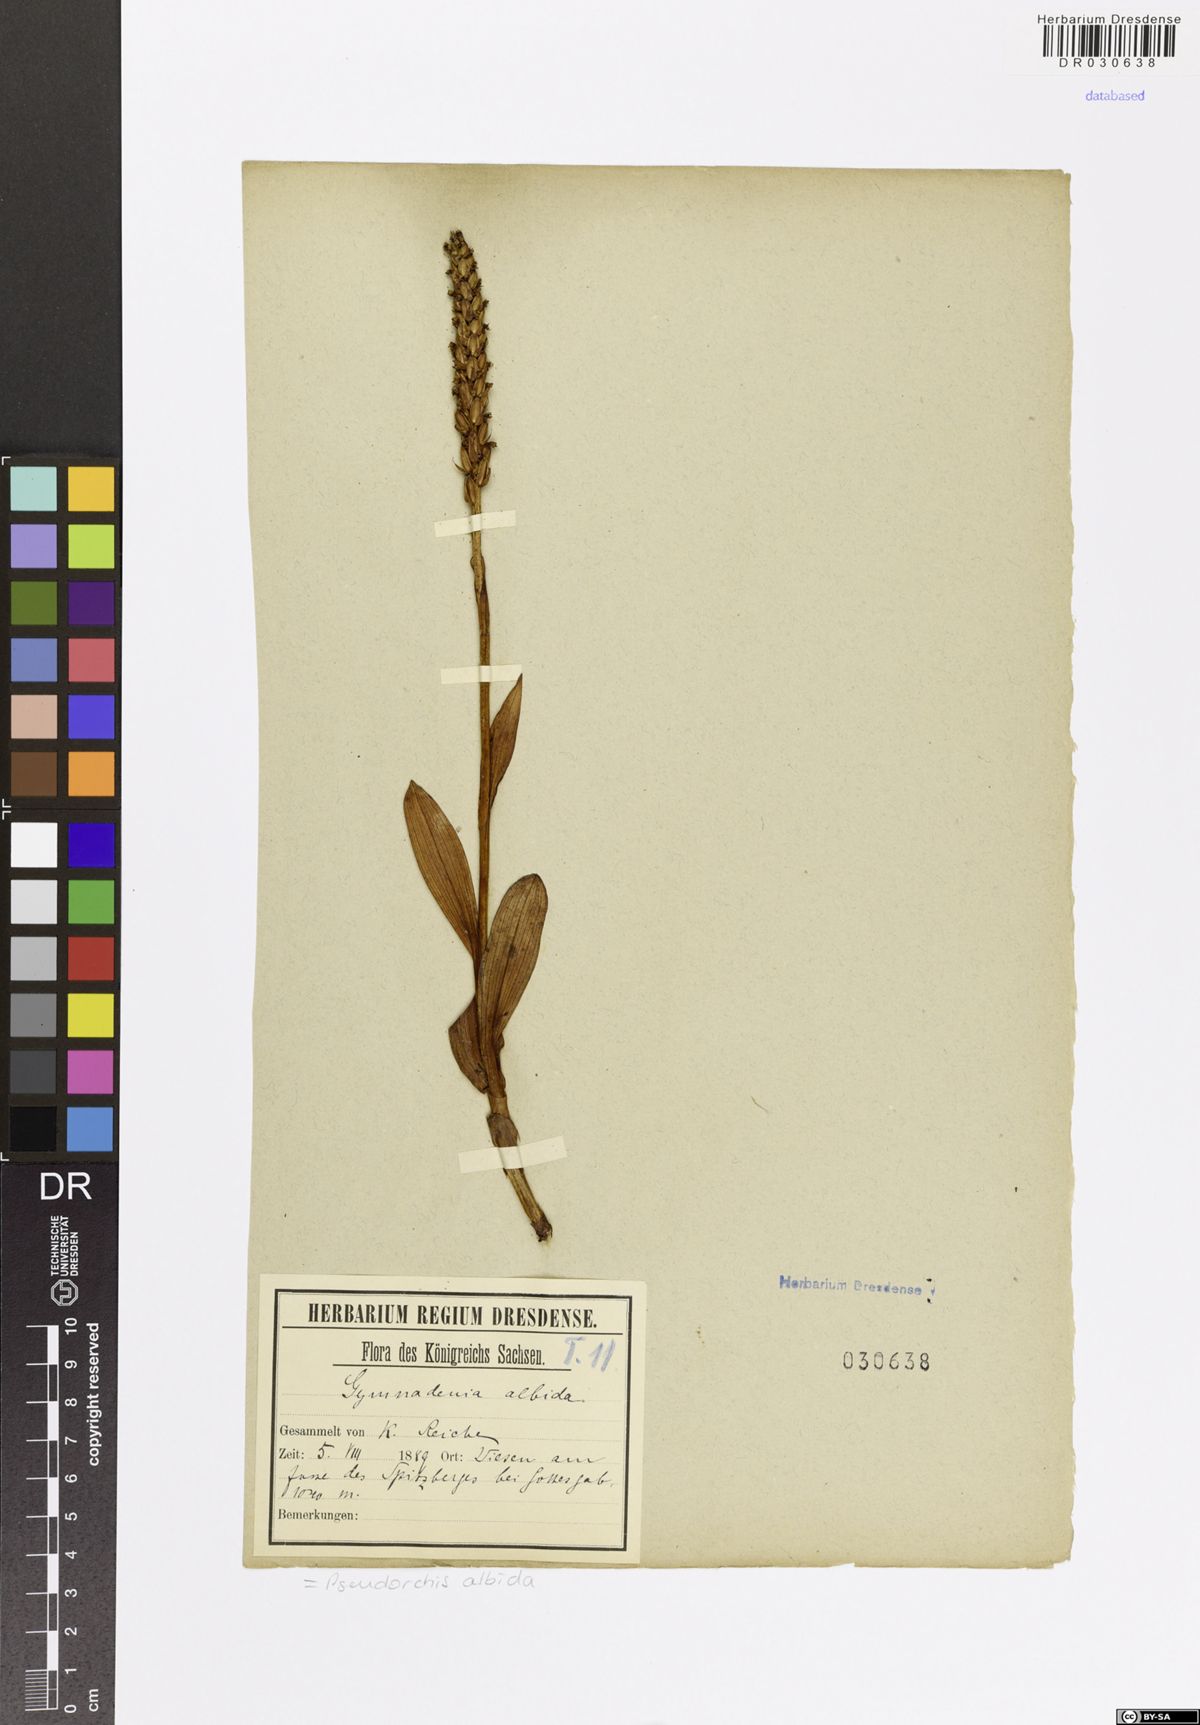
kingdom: Plantae
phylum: Tracheophyta
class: Liliopsida
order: Asparagales
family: Orchidaceae
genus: Pseudorchis
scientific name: Pseudorchis albida
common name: Small-white orchid
